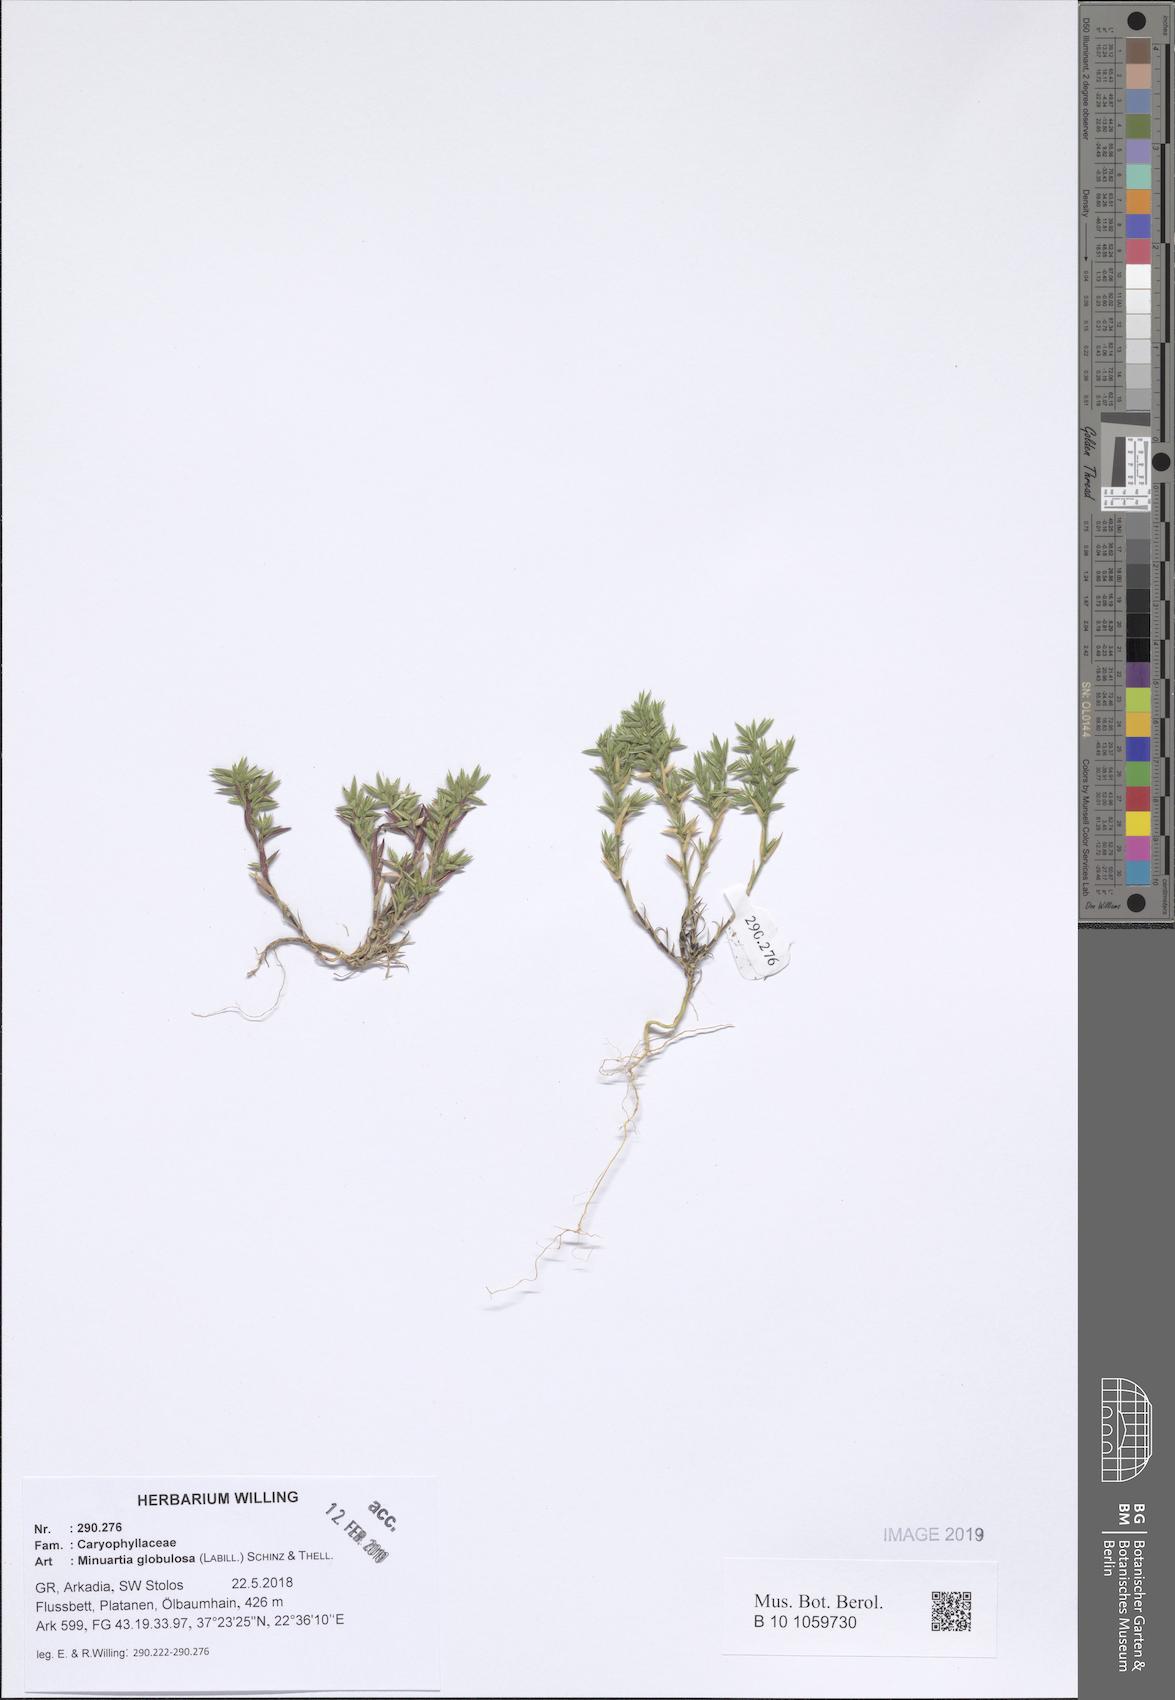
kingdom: Plantae
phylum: Tracheophyta
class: Magnoliopsida
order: Caryophyllales
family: Caryophyllaceae
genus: Minuartia
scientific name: Minuartia globulosa
